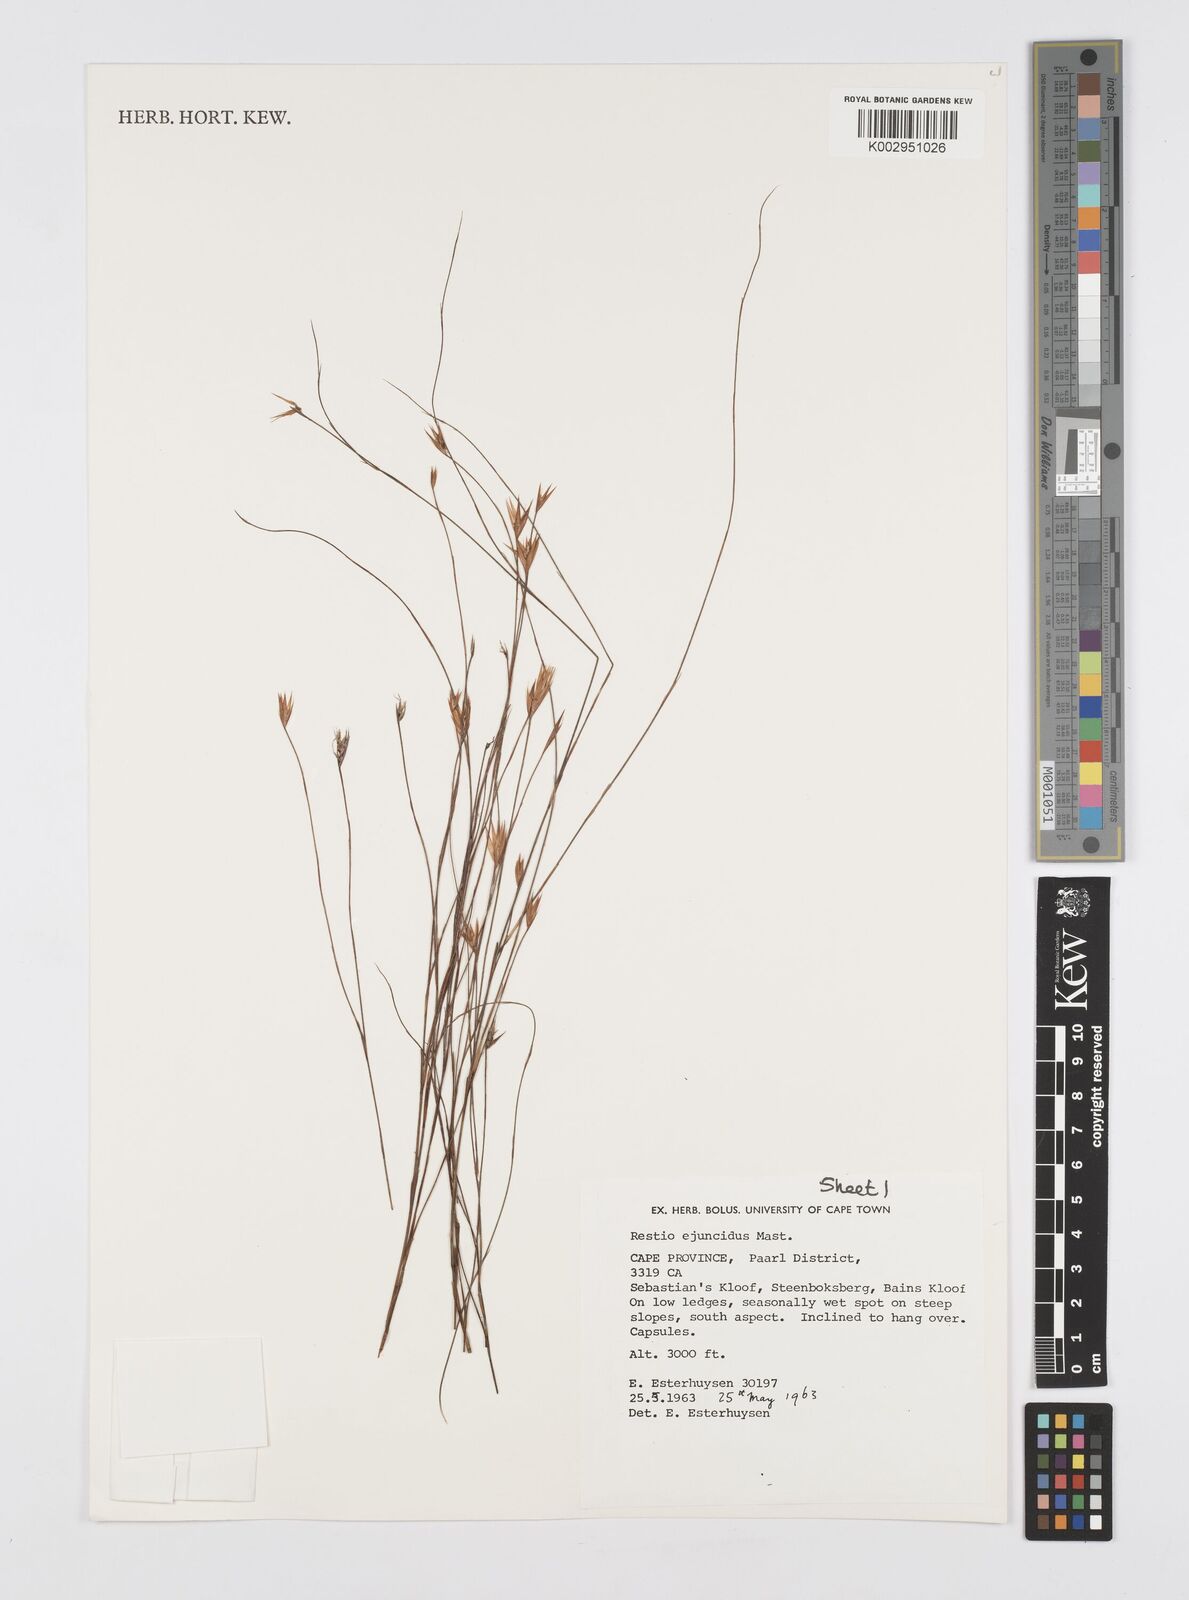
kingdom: Plantae
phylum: Tracheophyta
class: Liliopsida
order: Poales
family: Restionaceae
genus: Restio
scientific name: Restio ejuncidus
